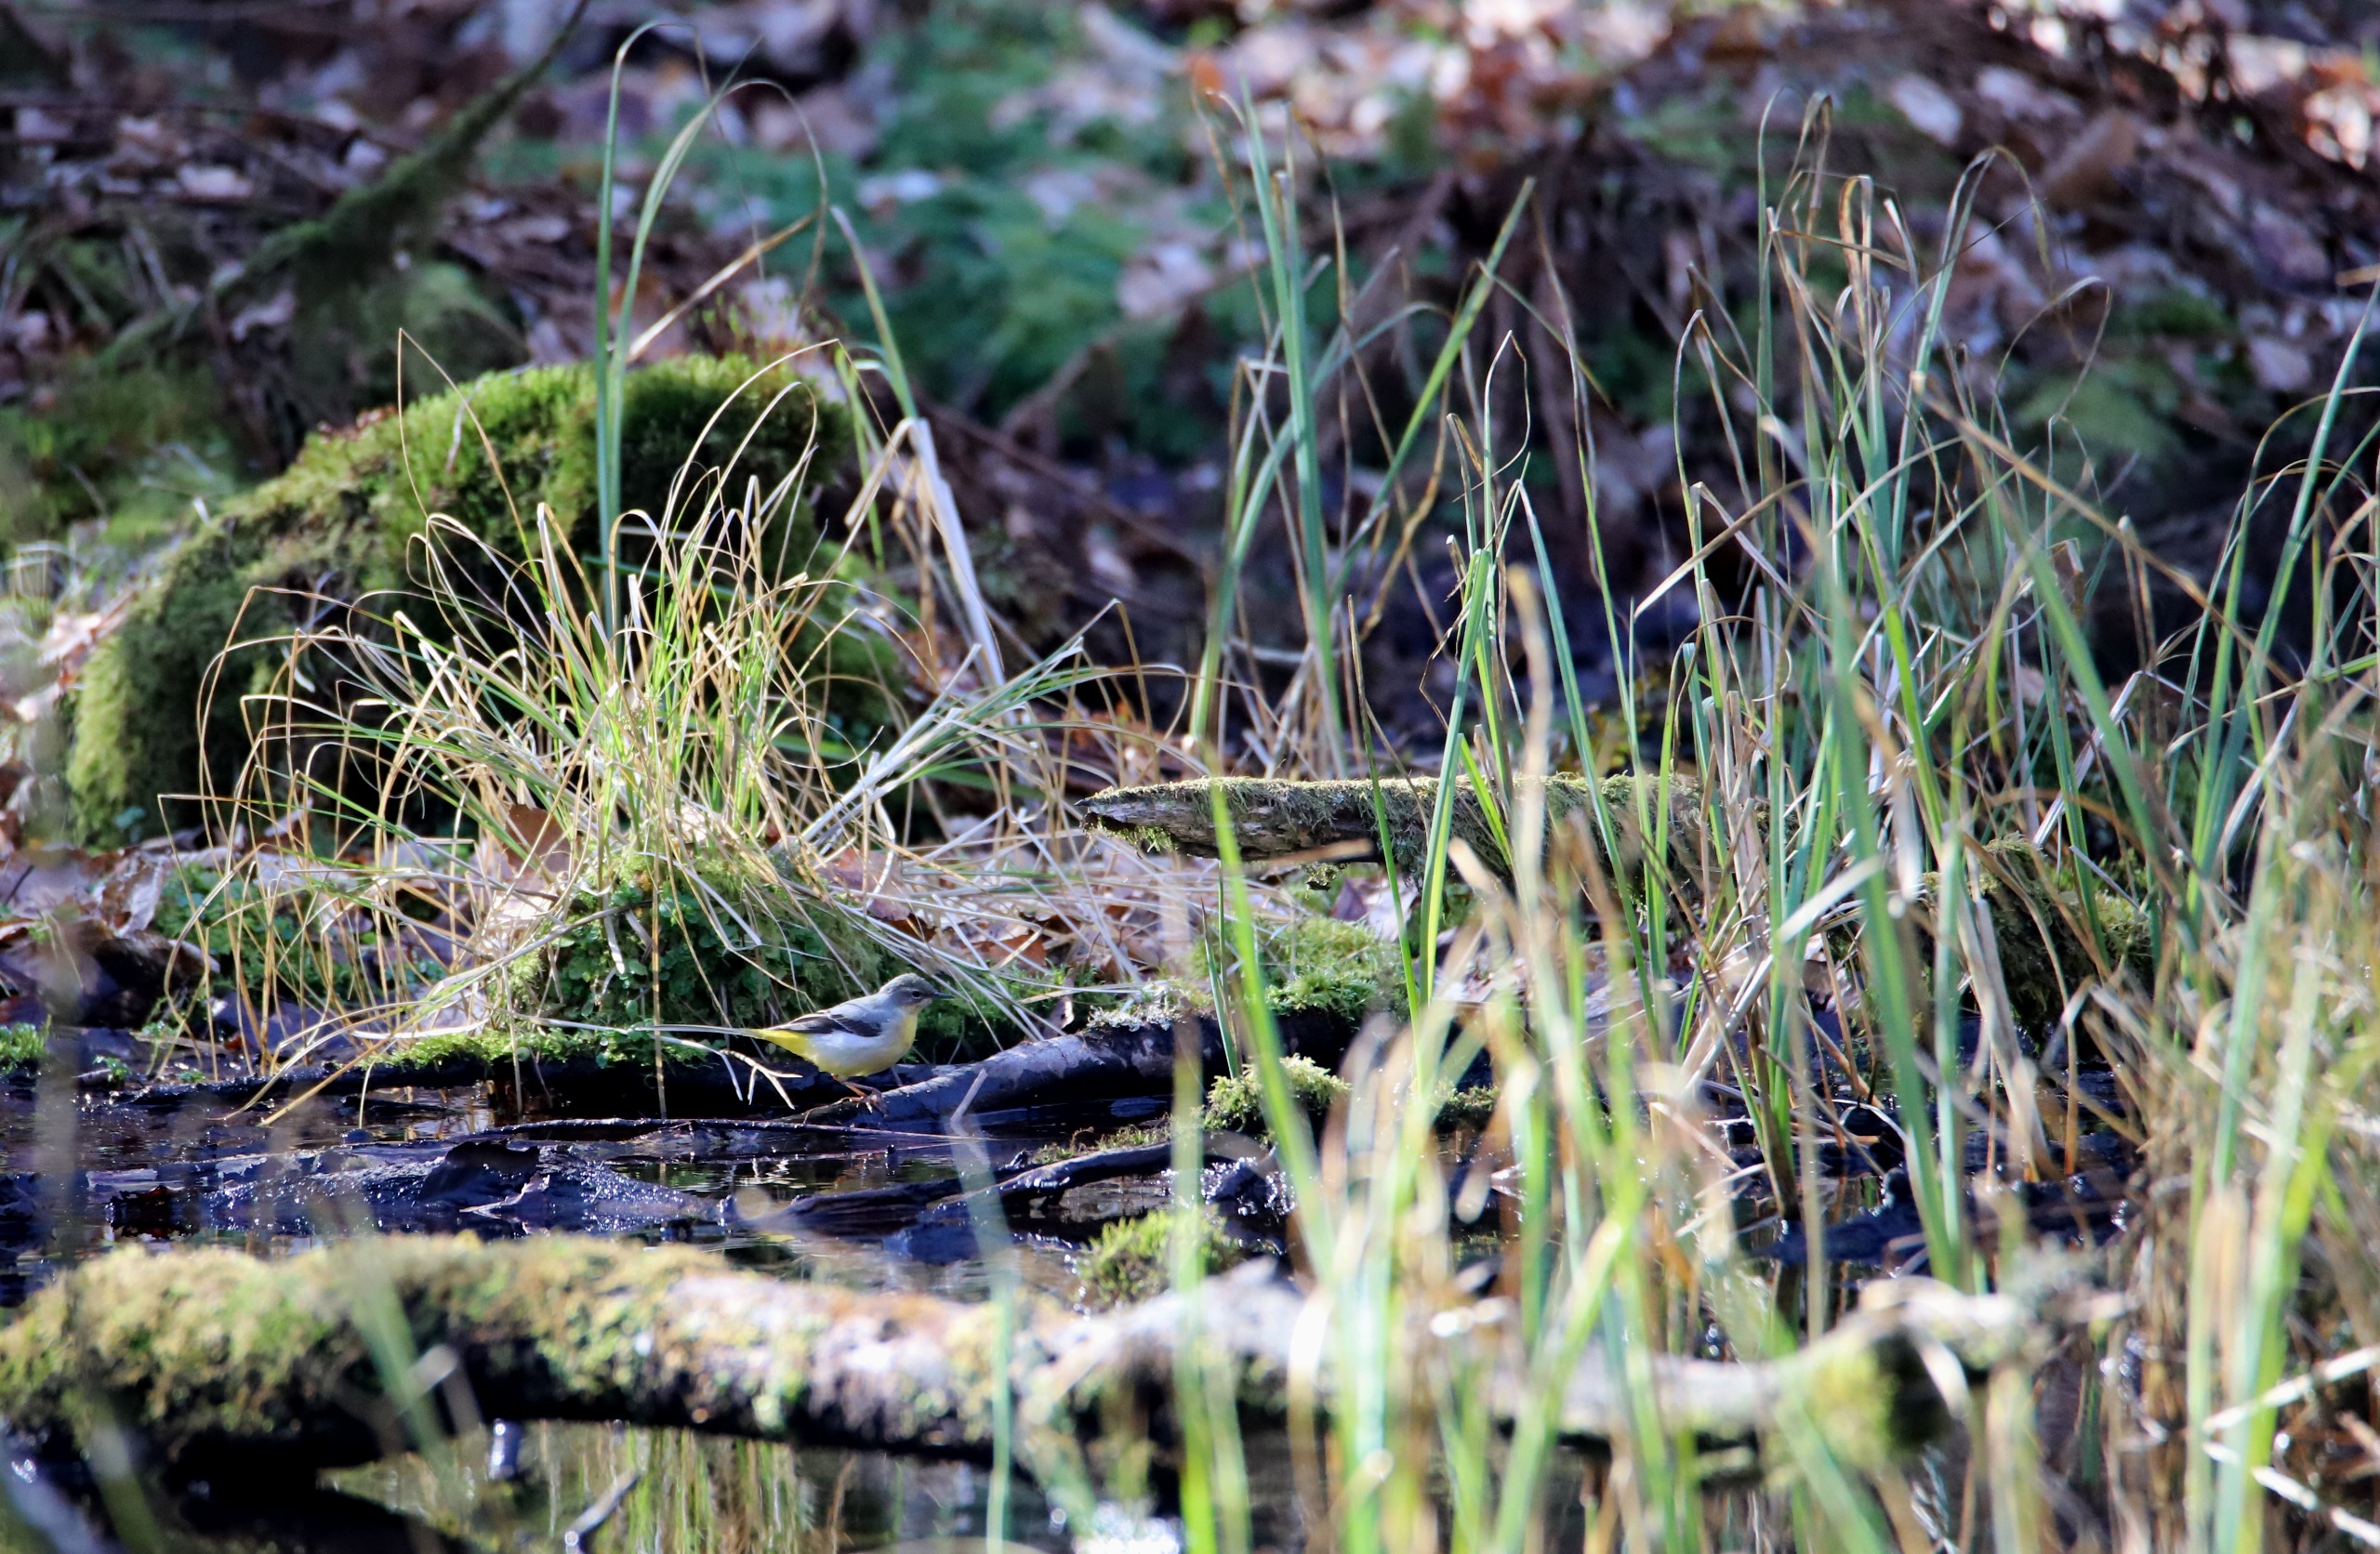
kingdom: Animalia
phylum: Chordata
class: Aves
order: Passeriformes
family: Motacillidae
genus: Motacilla
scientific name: Motacilla cinerea
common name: Bjergvipstjert
